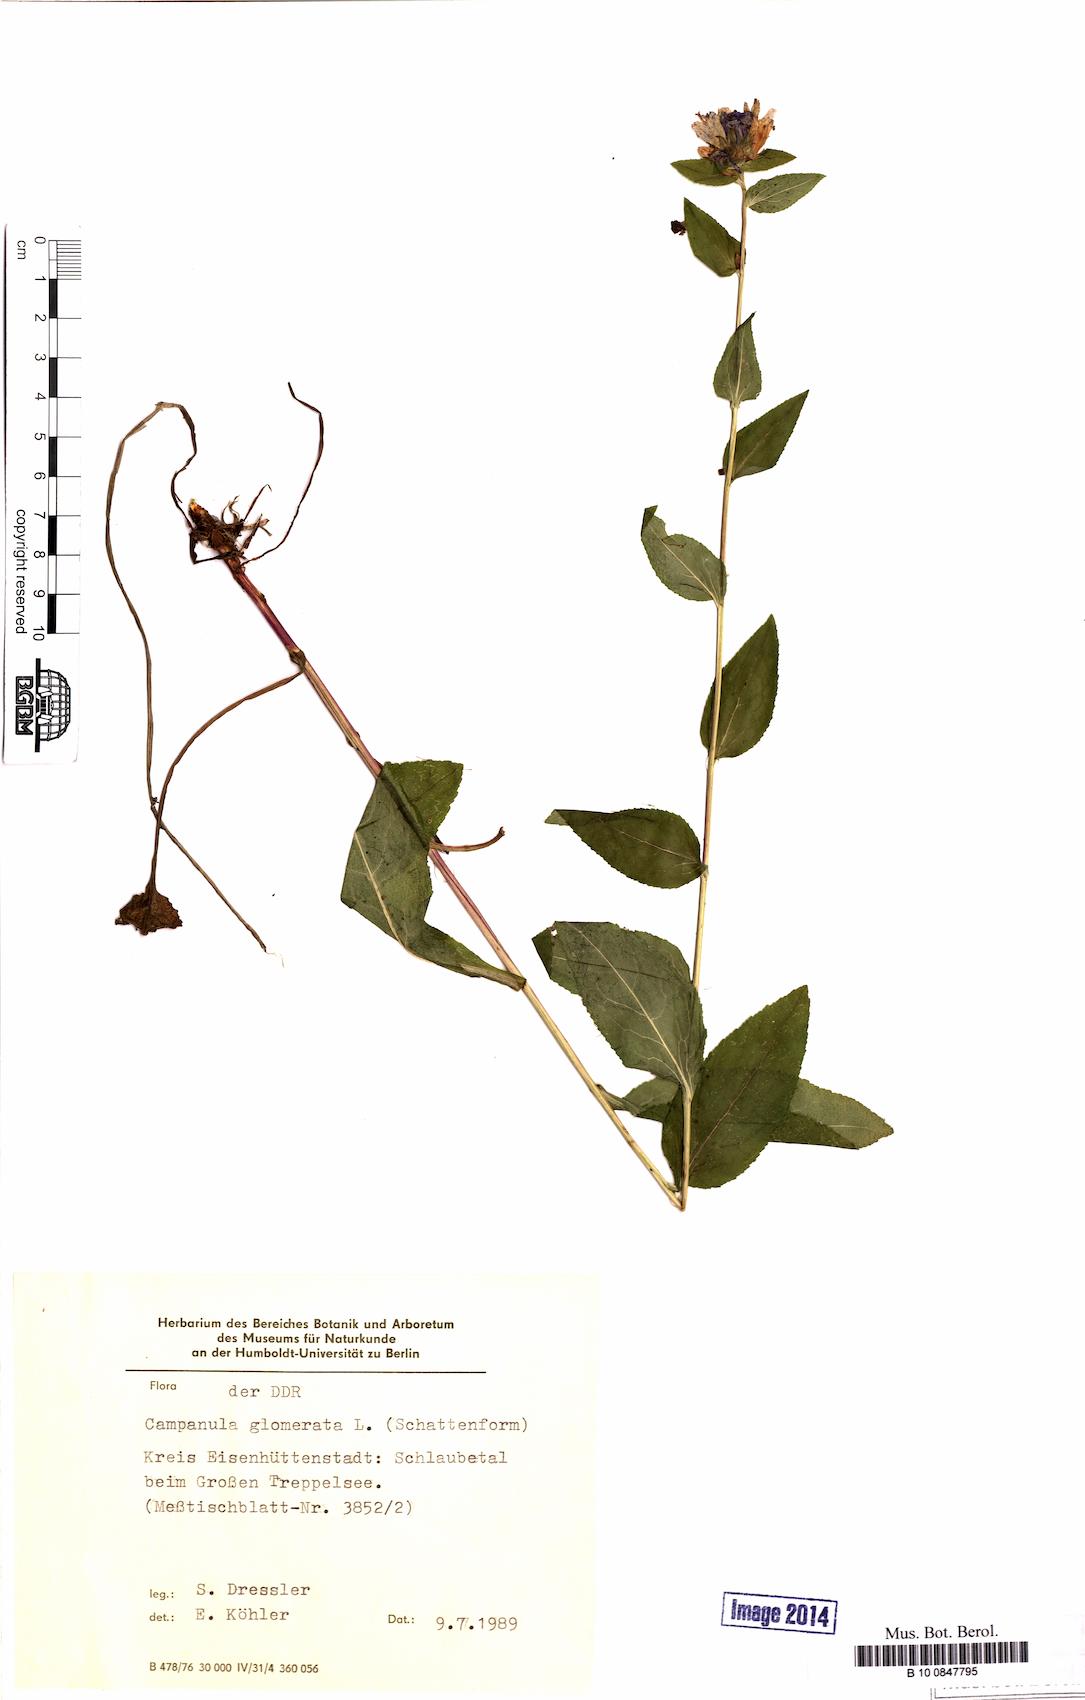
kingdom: Plantae
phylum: Tracheophyta
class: Magnoliopsida
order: Asterales
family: Campanulaceae
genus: Campanula
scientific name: Campanula glomerata
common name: Clustered bellflower
